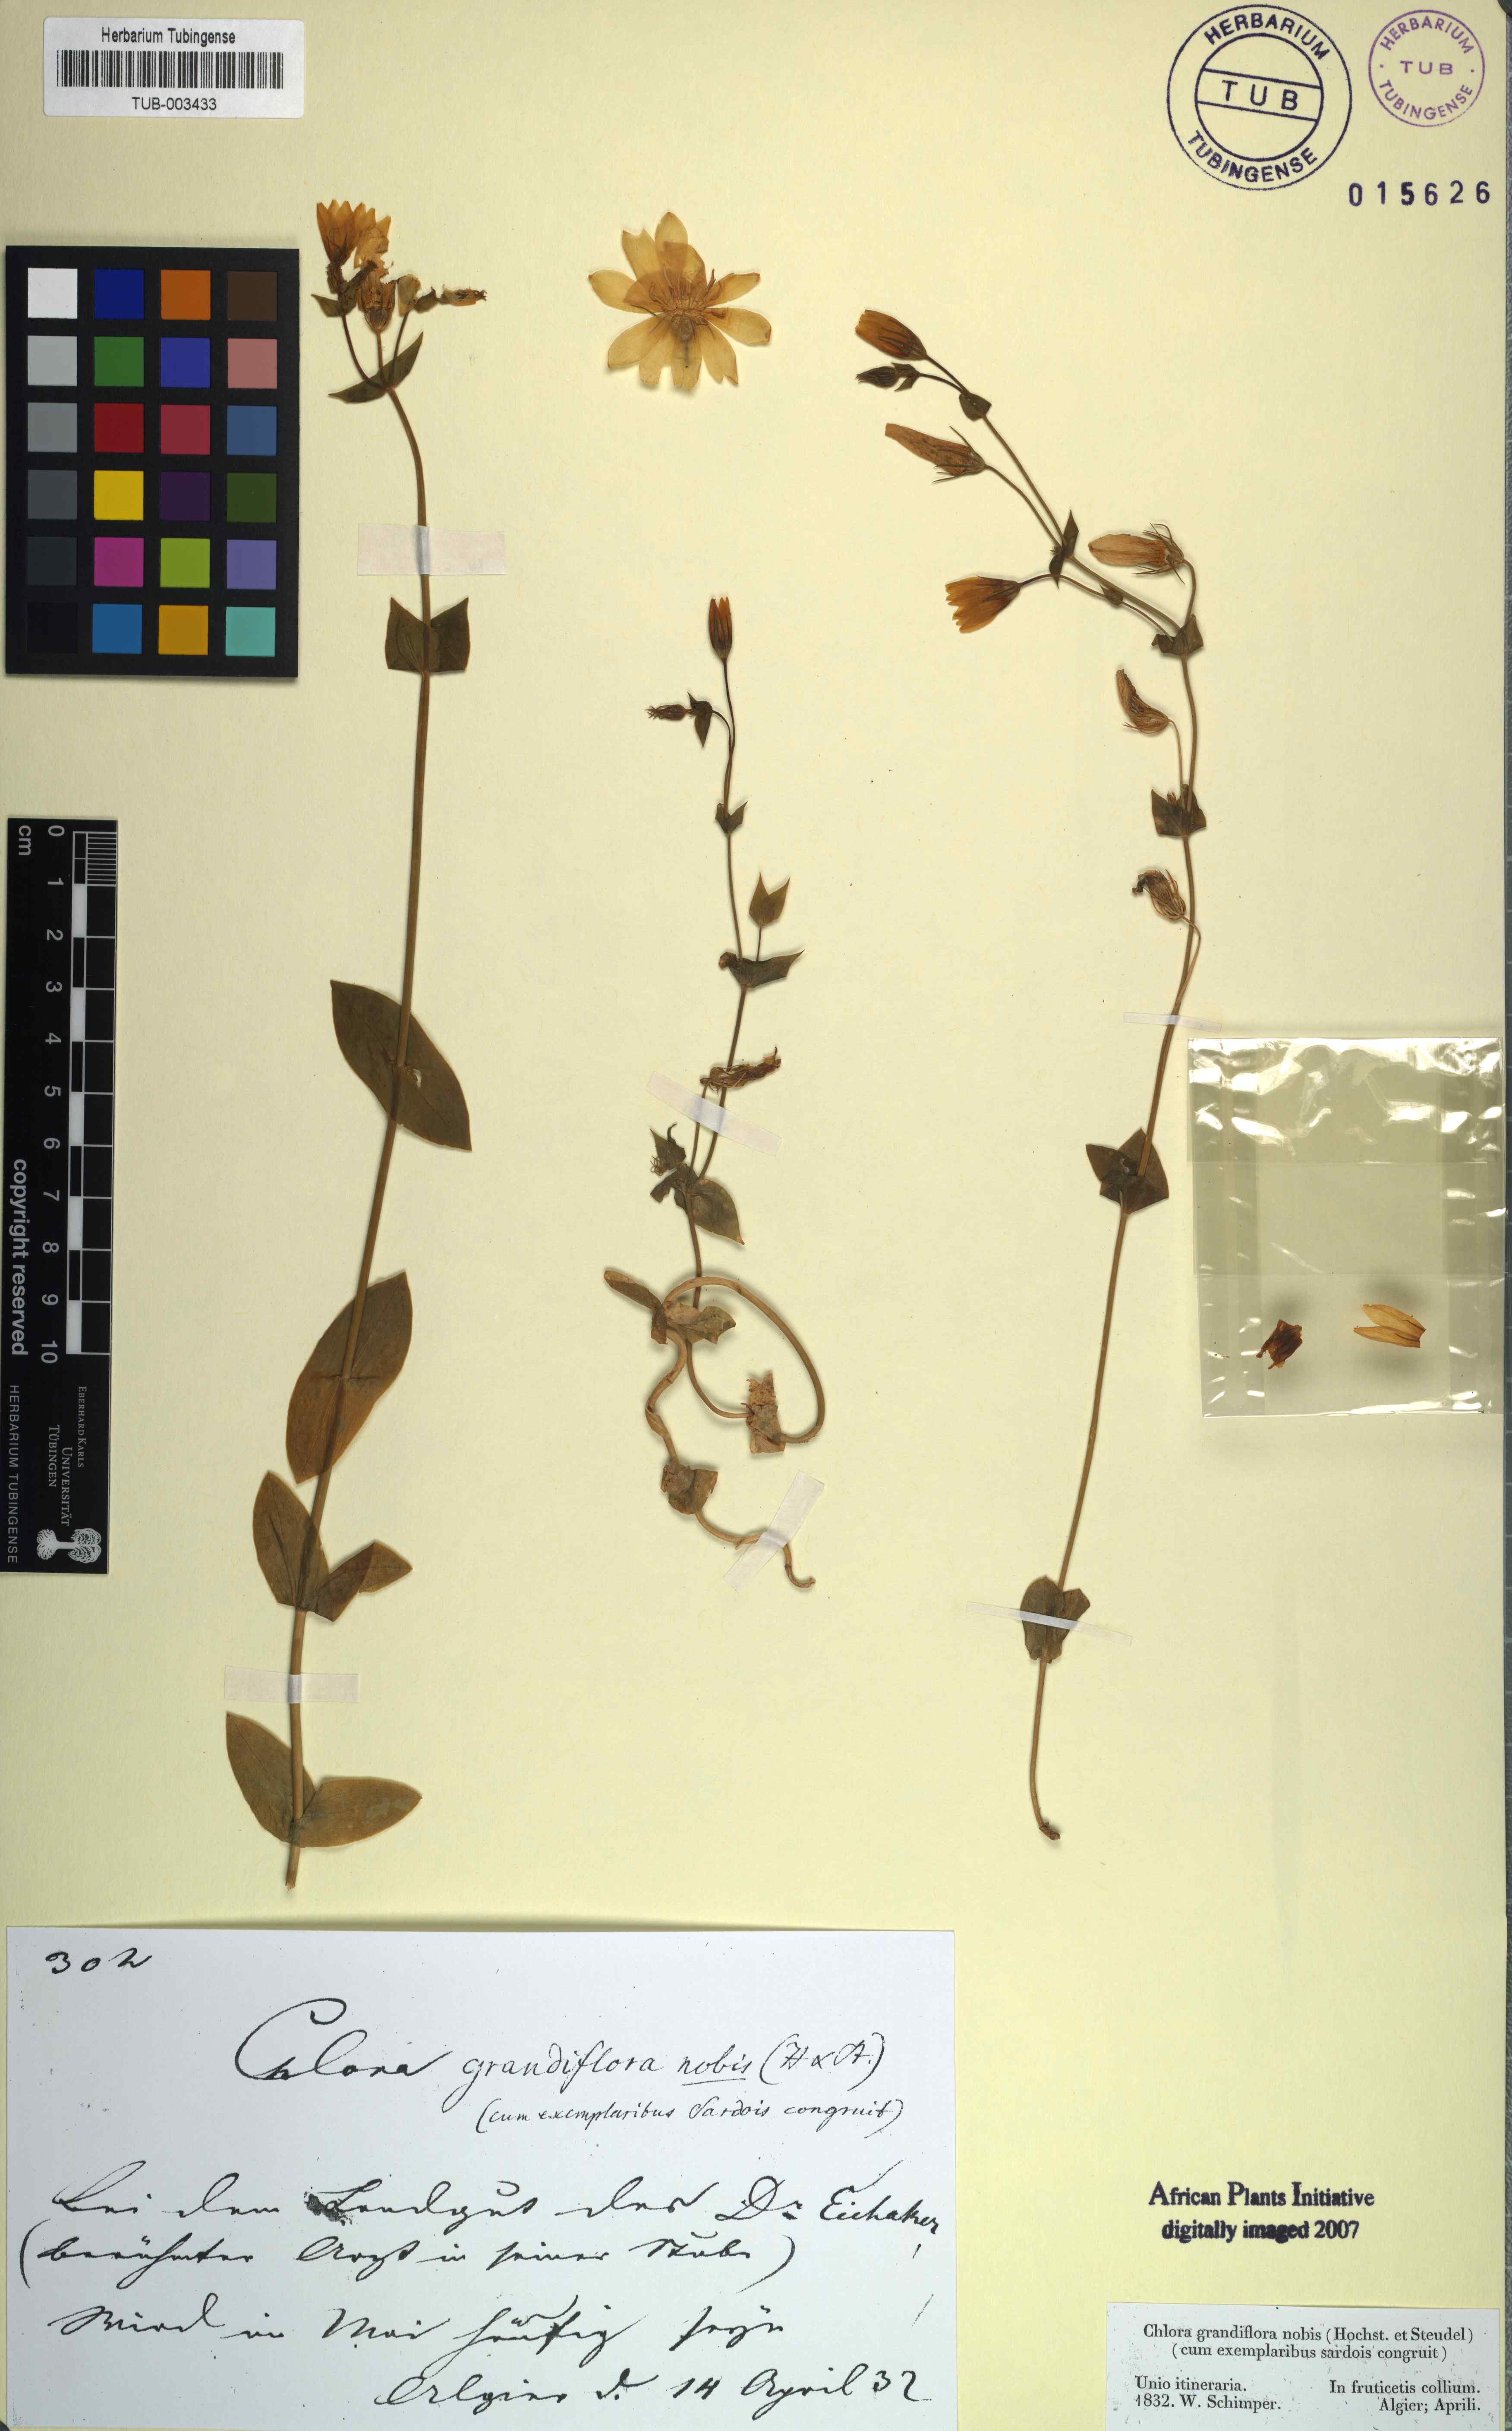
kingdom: Plantae
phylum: Tracheophyta
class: Magnoliopsida
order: Gentianales
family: Gentianaceae
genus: Blackstonia
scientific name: Blackstonia perfoliata
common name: Yellow-wort
